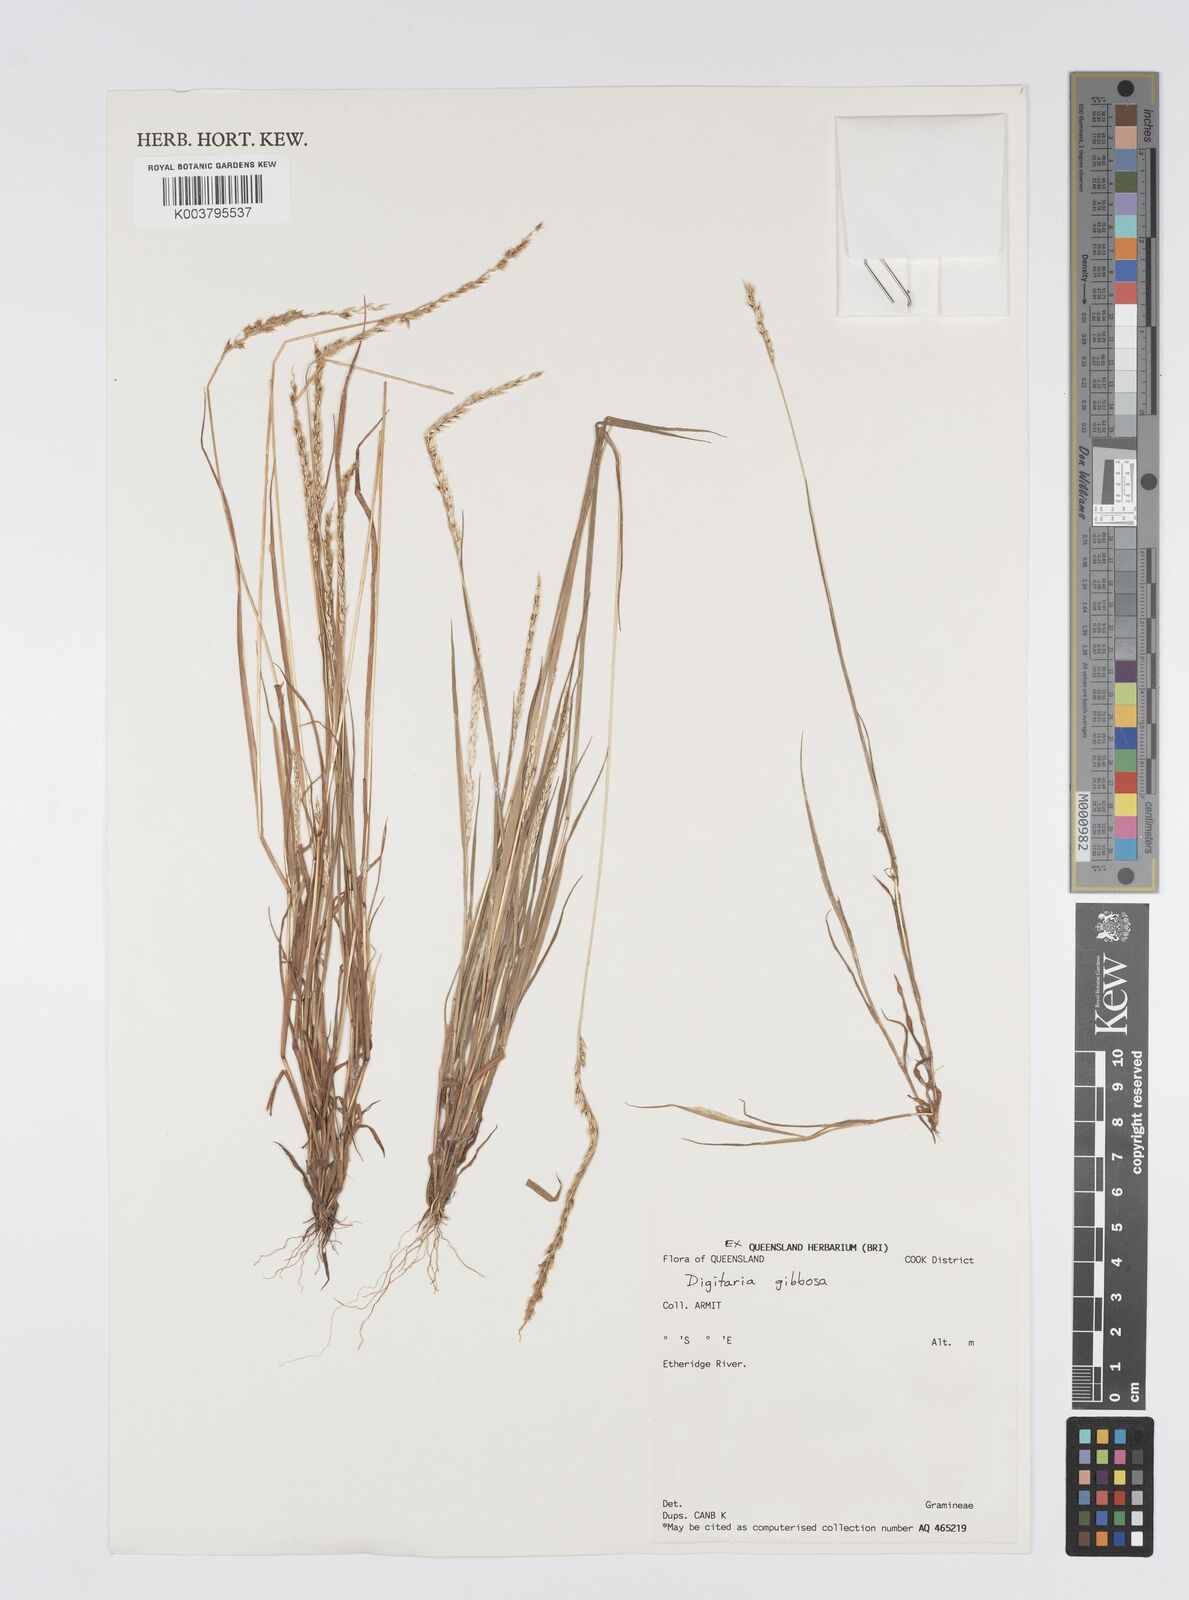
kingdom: Plantae
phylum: Tracheophyta
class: Liliopsida
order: Poales
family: Poaceae
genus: Digitaria
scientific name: Digitaria gibbosa
